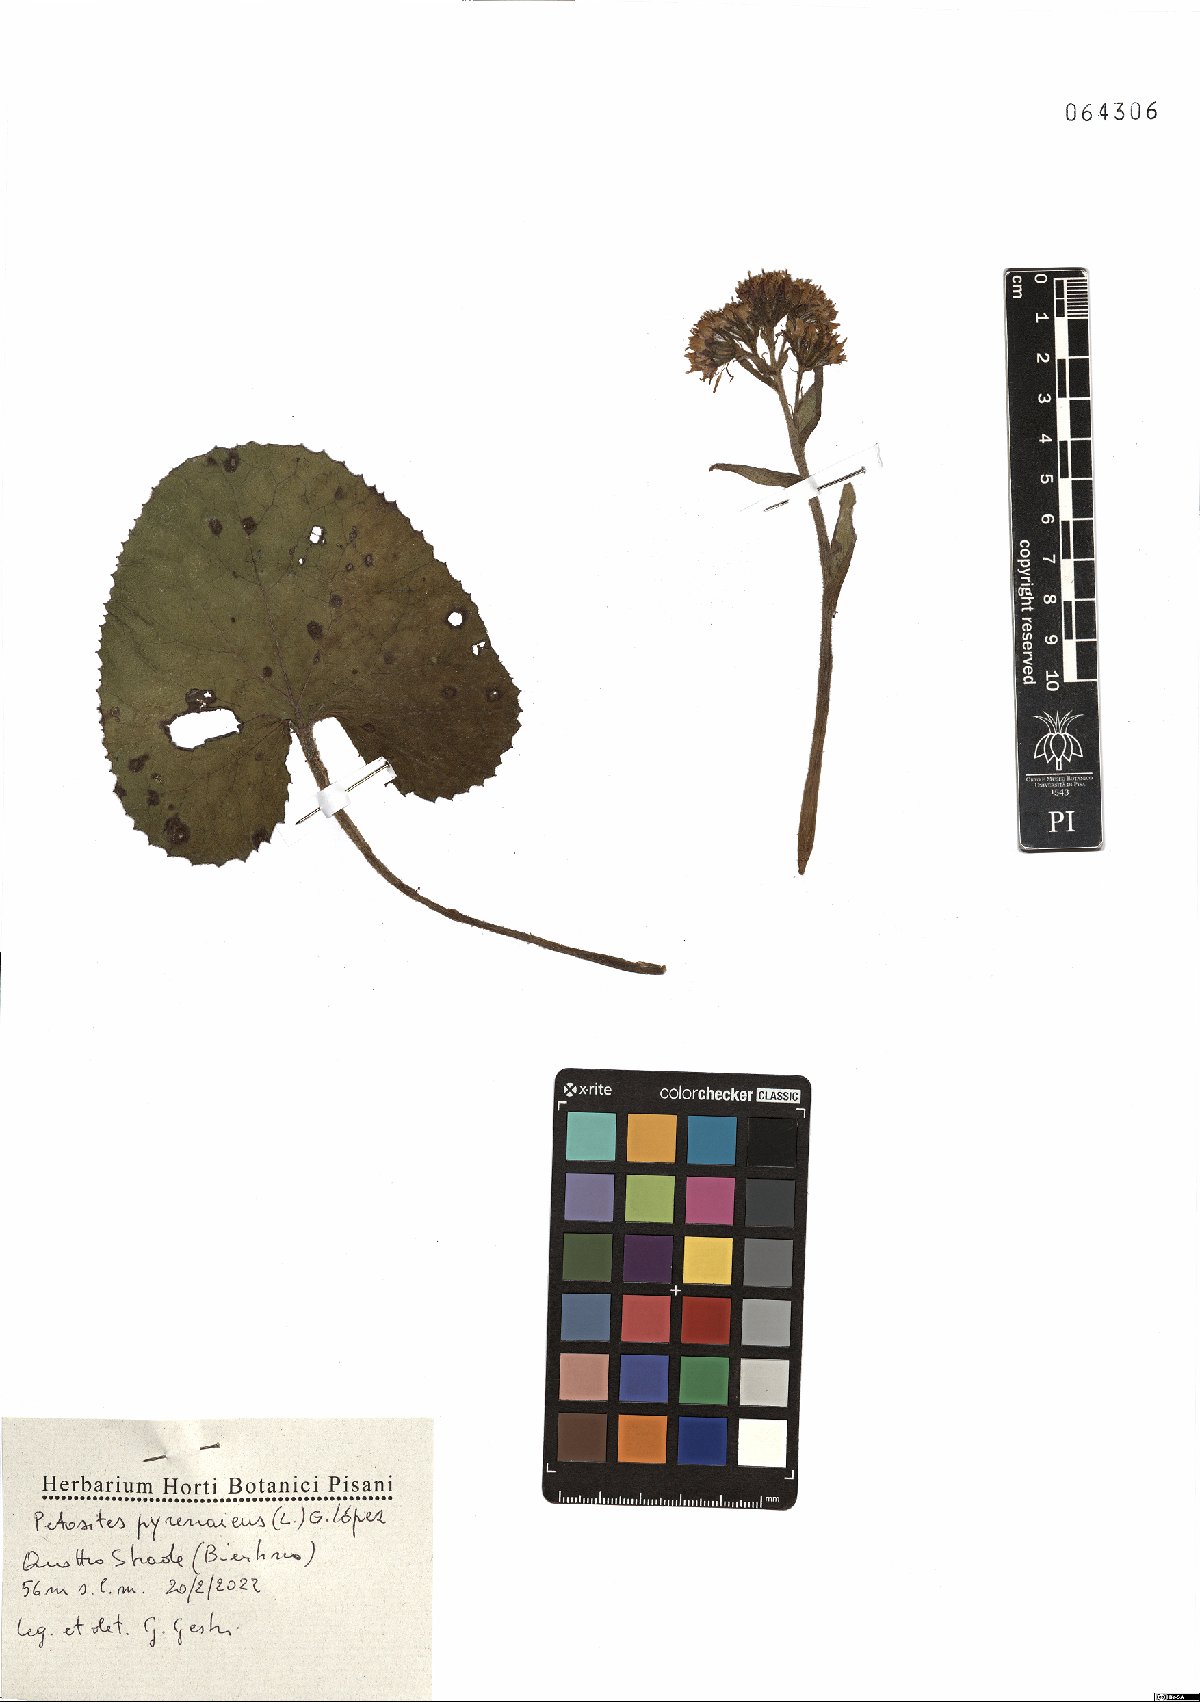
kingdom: Plantae
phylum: Tracheophyta
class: Magnoliopsida
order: Asterales
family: Asteraceae
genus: Petasites
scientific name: Petasites pyrenaicus
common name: Winter heliotrope
